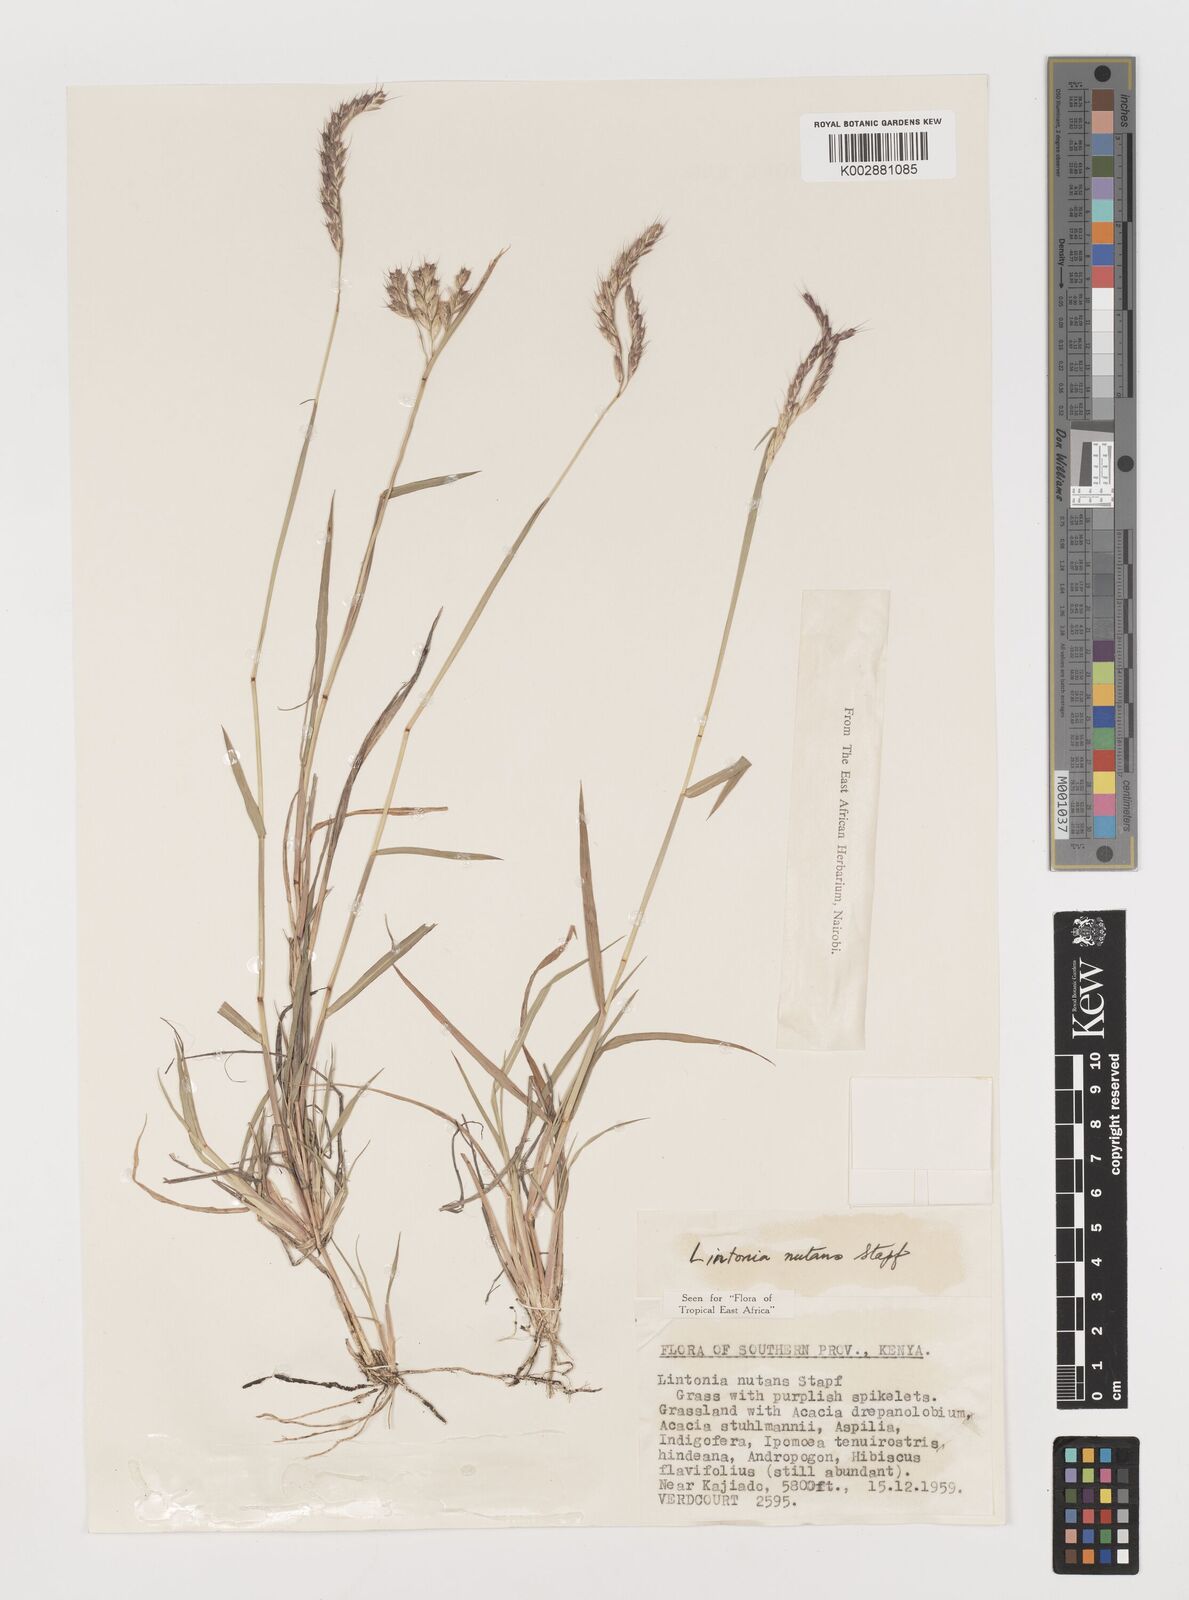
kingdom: Plantae
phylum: Tracheophyta
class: Liliopsida
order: Poales
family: Poaceae
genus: Chloris
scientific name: Chloris nutans
